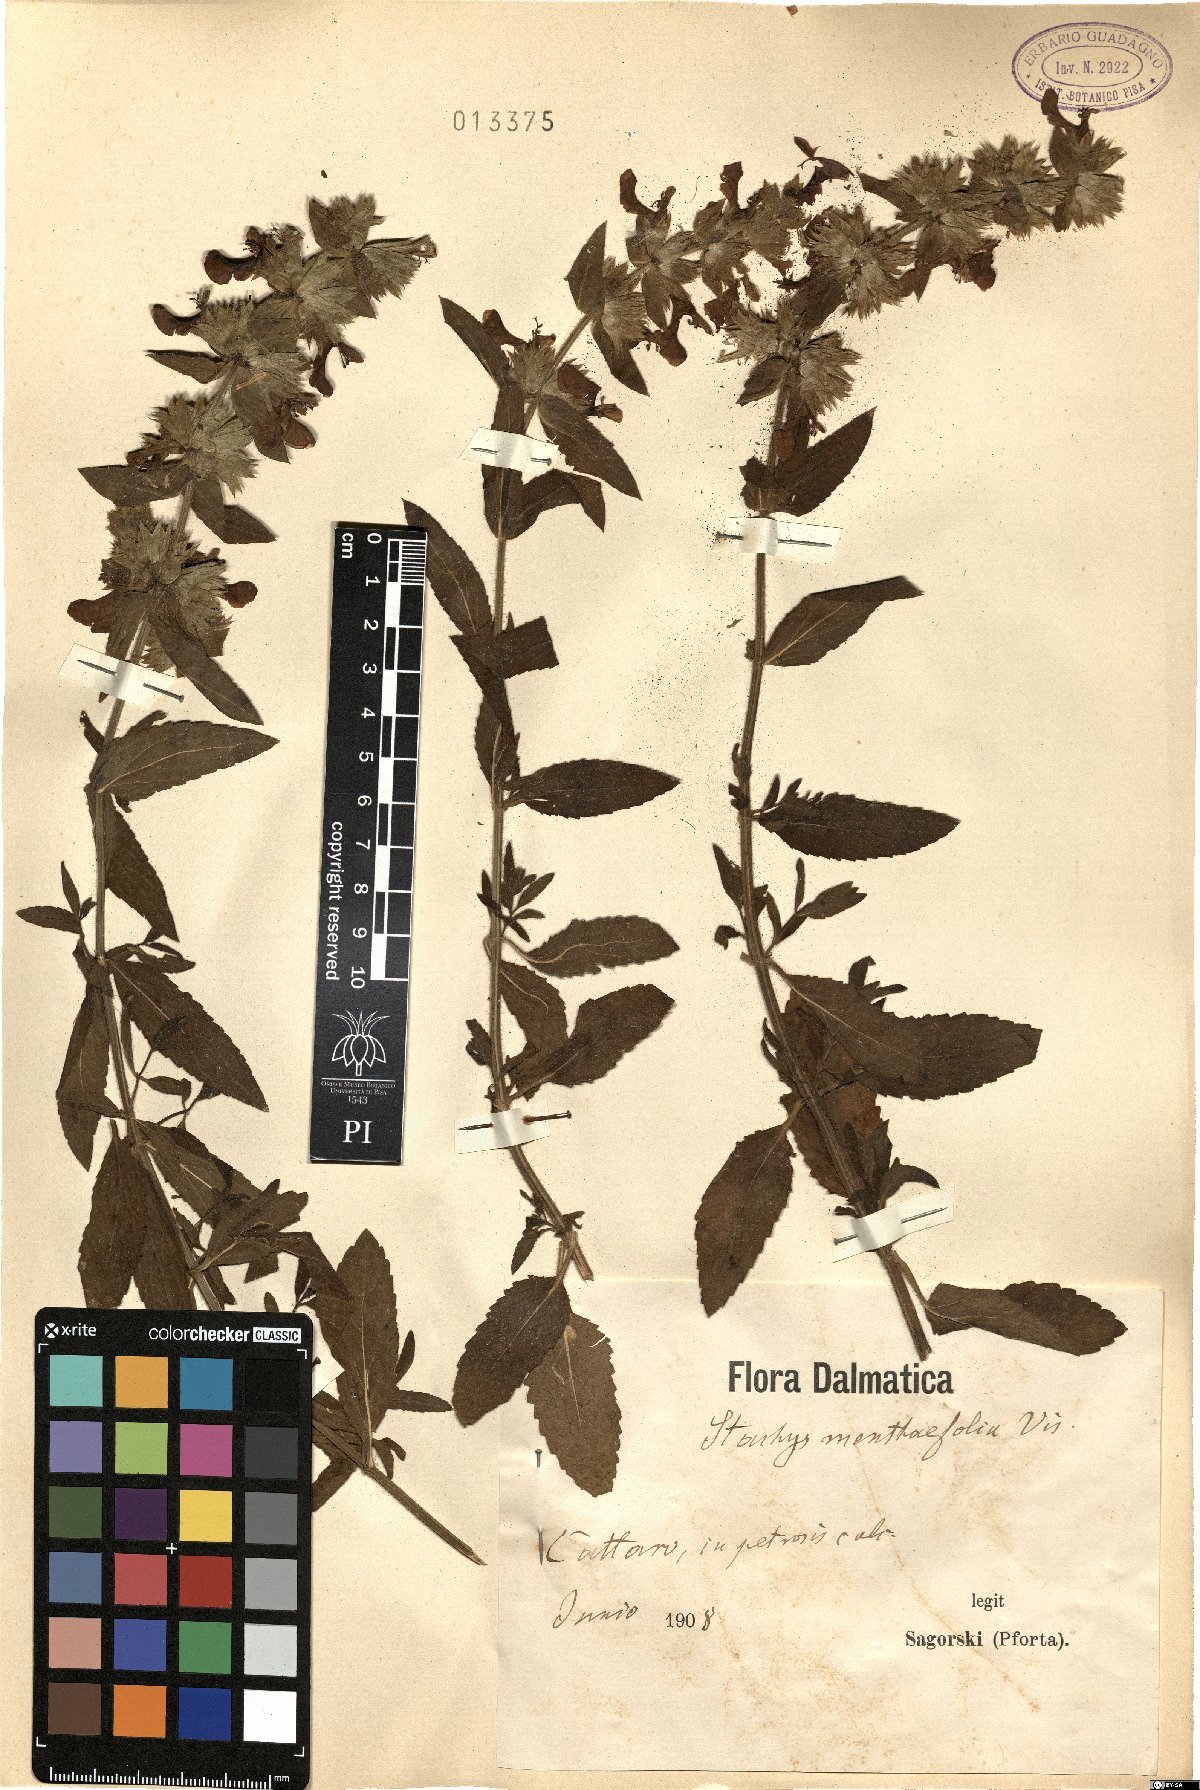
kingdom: Plantae
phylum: Tracheophyta
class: Magnoliopsida
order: Lamiales
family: Lamiaceae
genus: Stachys
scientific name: Stachys menthifolia
